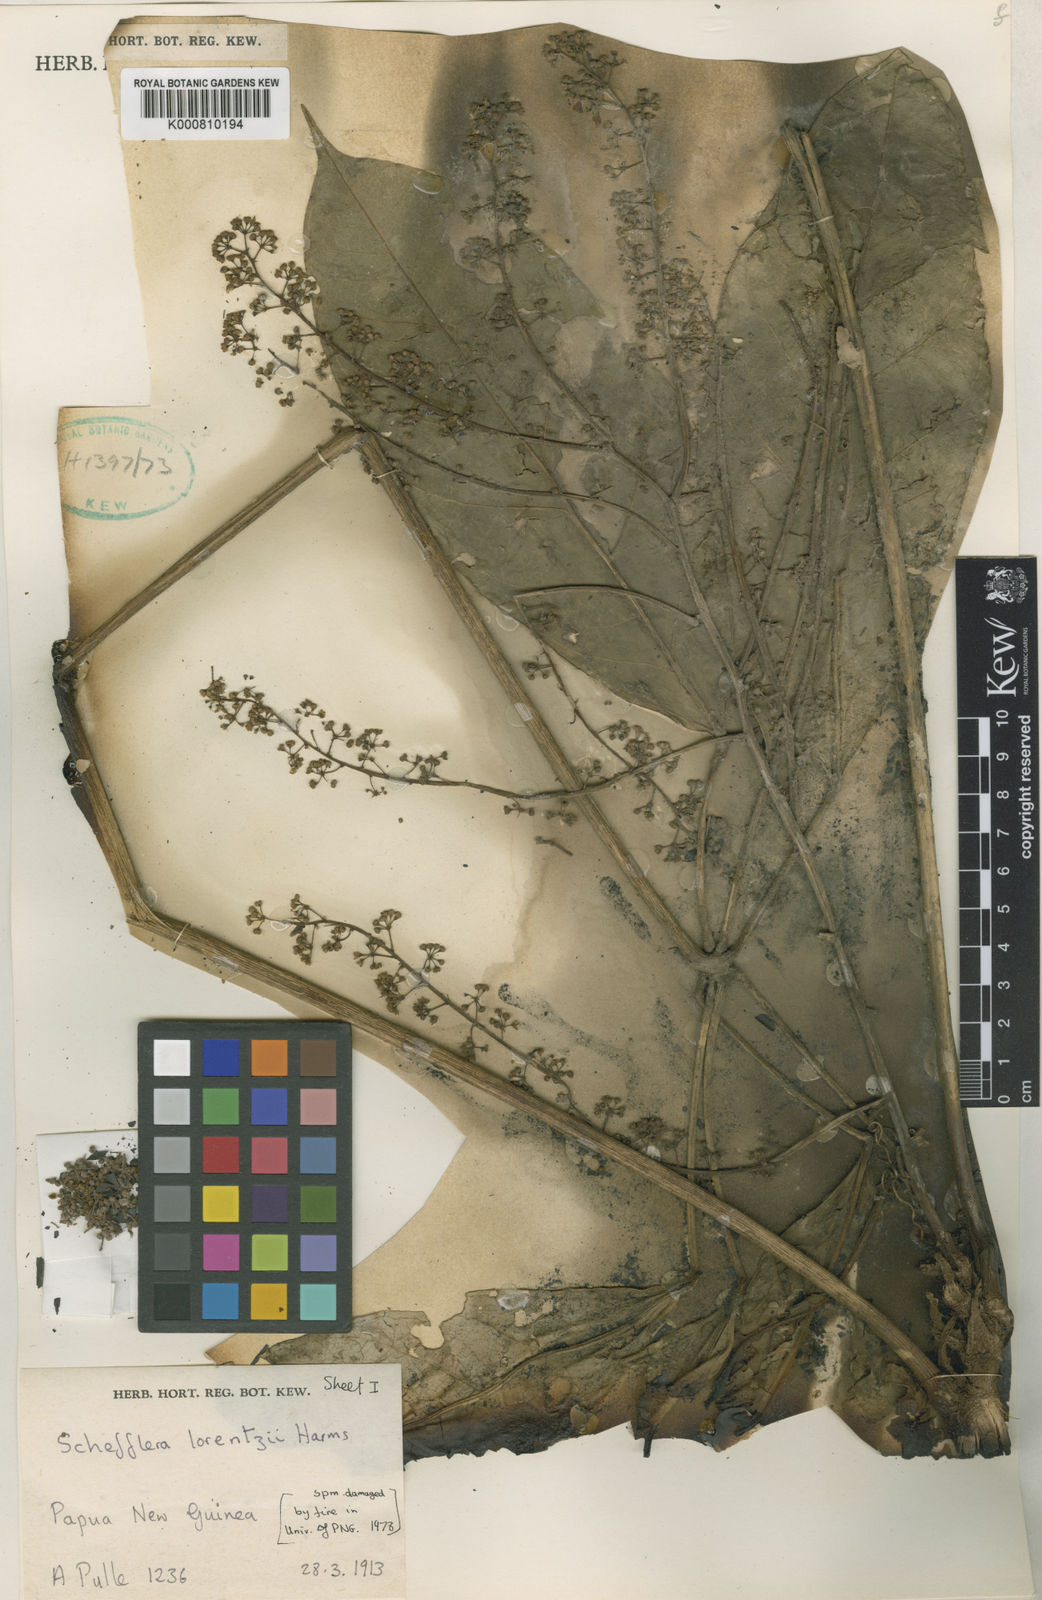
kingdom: Plantae
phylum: Tracheophyta
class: Magnoliopsida
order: Apiales
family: Araliaceae
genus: Heptapleurum
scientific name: Heptapleurum lorentzii
